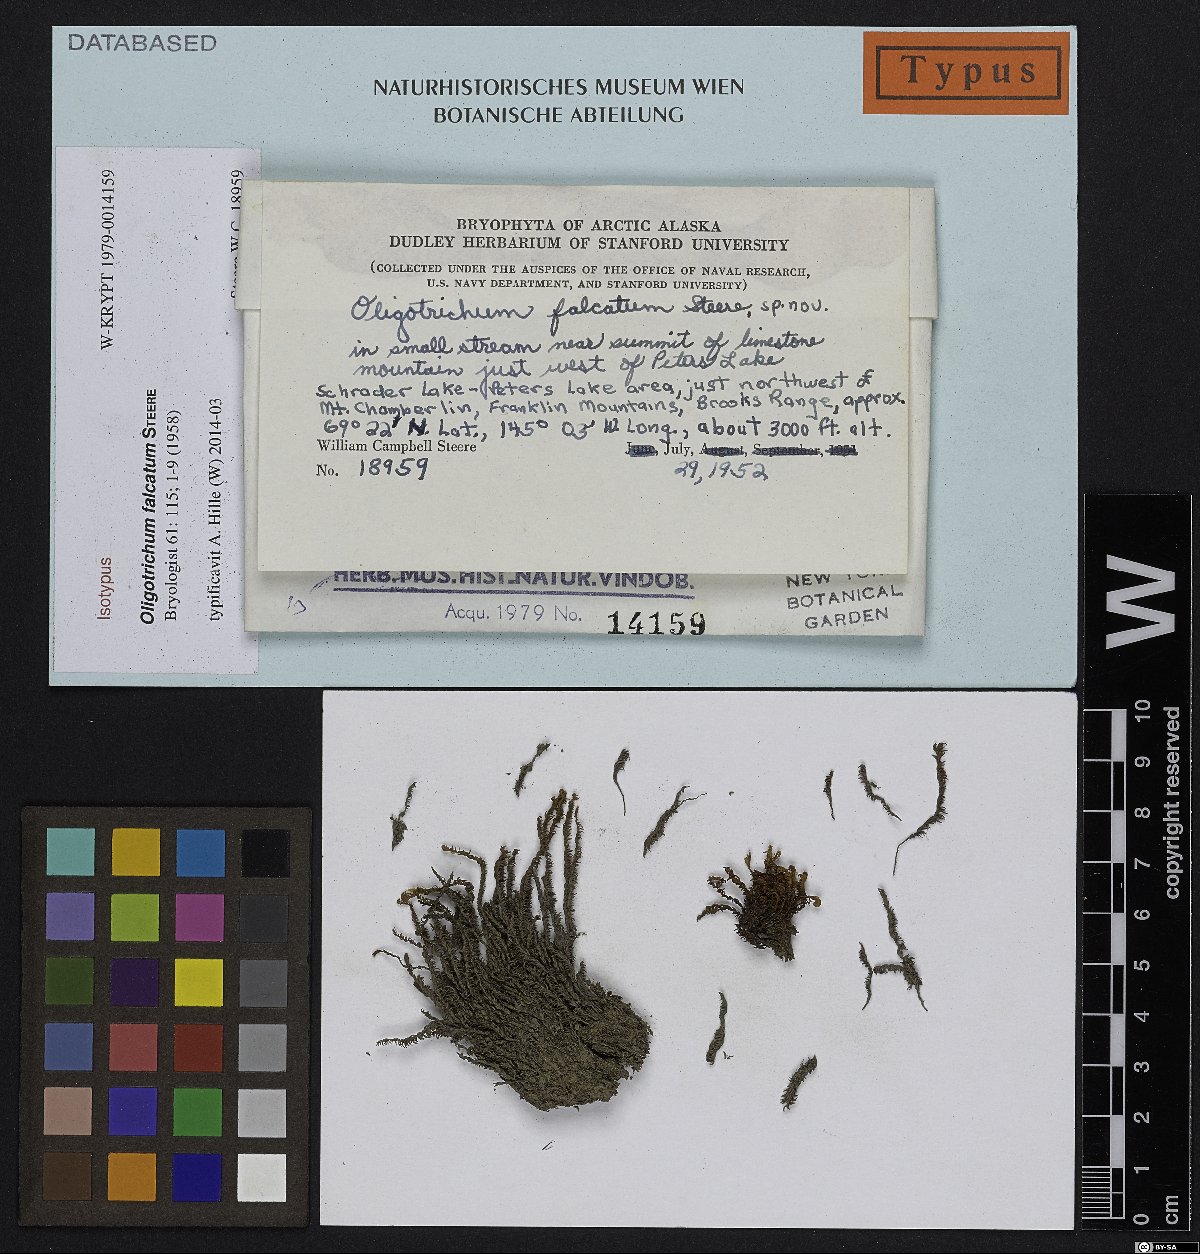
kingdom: Plantae
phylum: Bryophyta
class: Polytrichopsida
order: Polytrichales
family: Polytrichaceae
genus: Oligotrichum
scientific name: Oligotrichum falcatum
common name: Sickle-leaved hair moss
